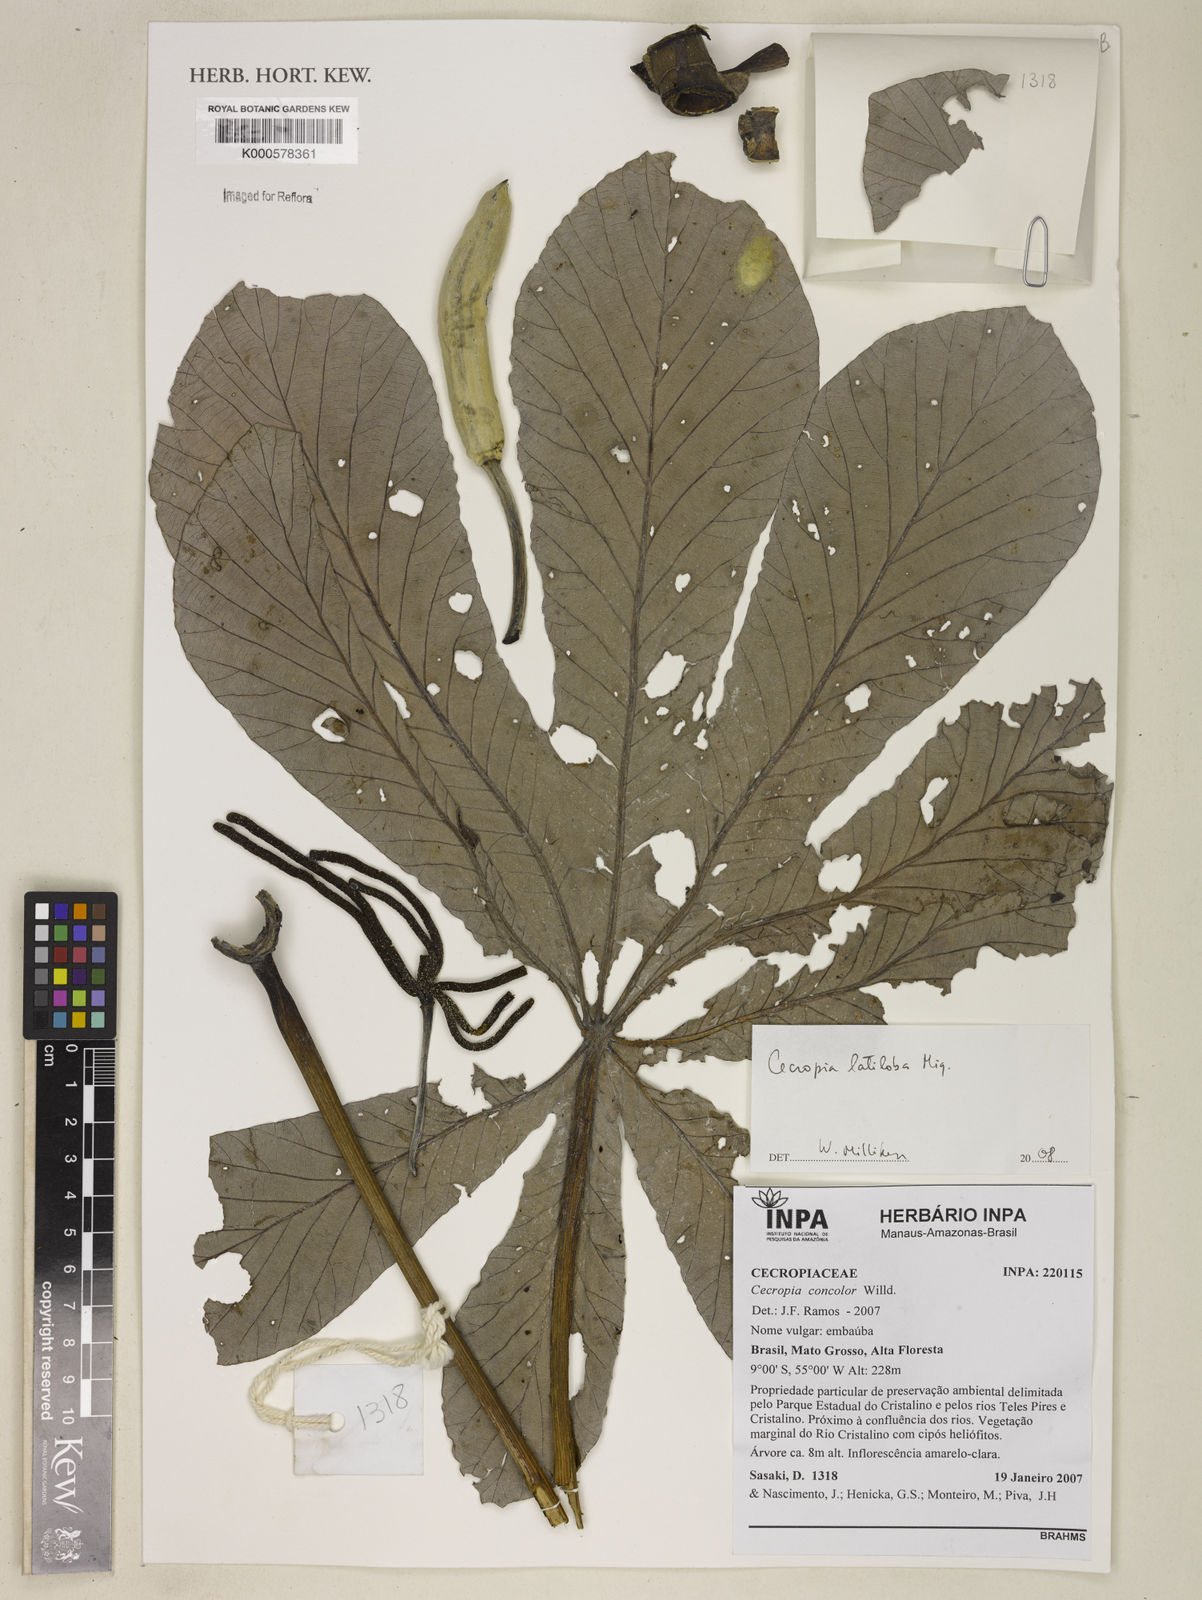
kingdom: Plantae
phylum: Tracheophyta
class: Magnoliopsida
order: Rosales
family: Urticaceae
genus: Cecropia
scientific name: Cecropia latiloba
